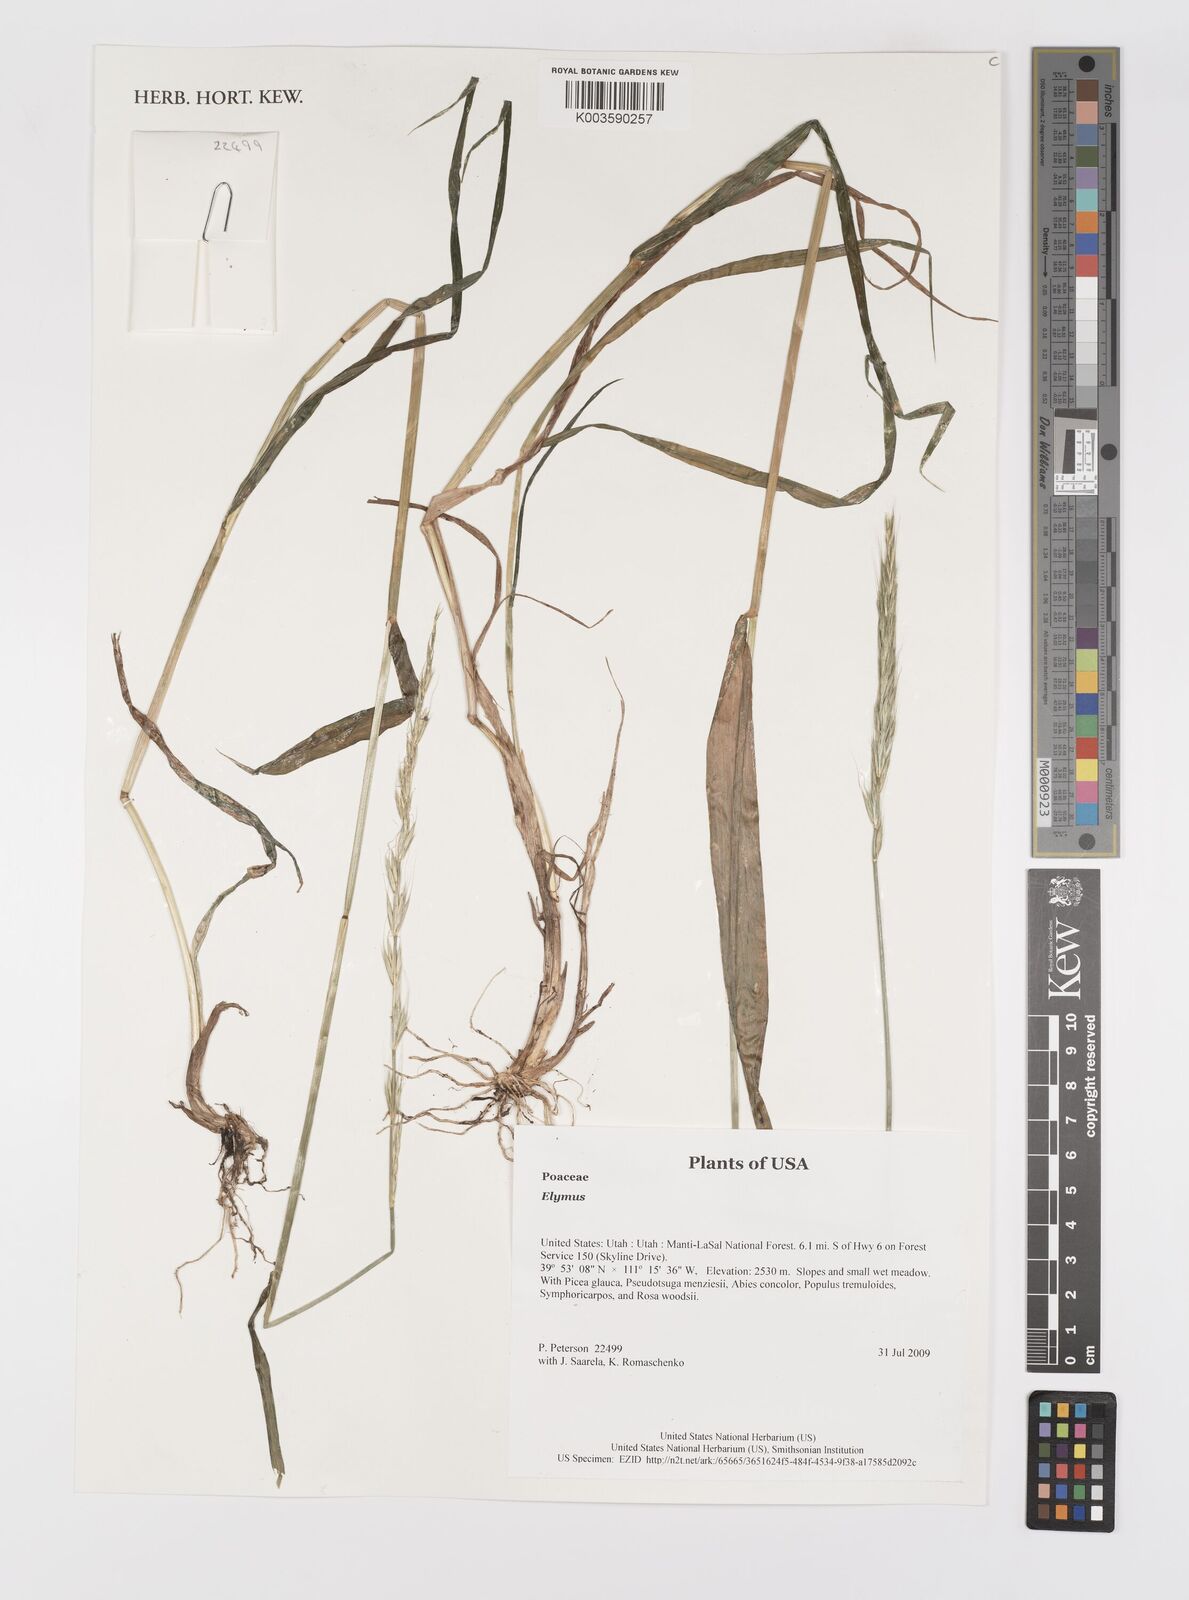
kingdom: Plantae
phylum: Tracheophyta
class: Liliopsida
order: Poales
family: Poaceae
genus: Elymus
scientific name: Elymus
